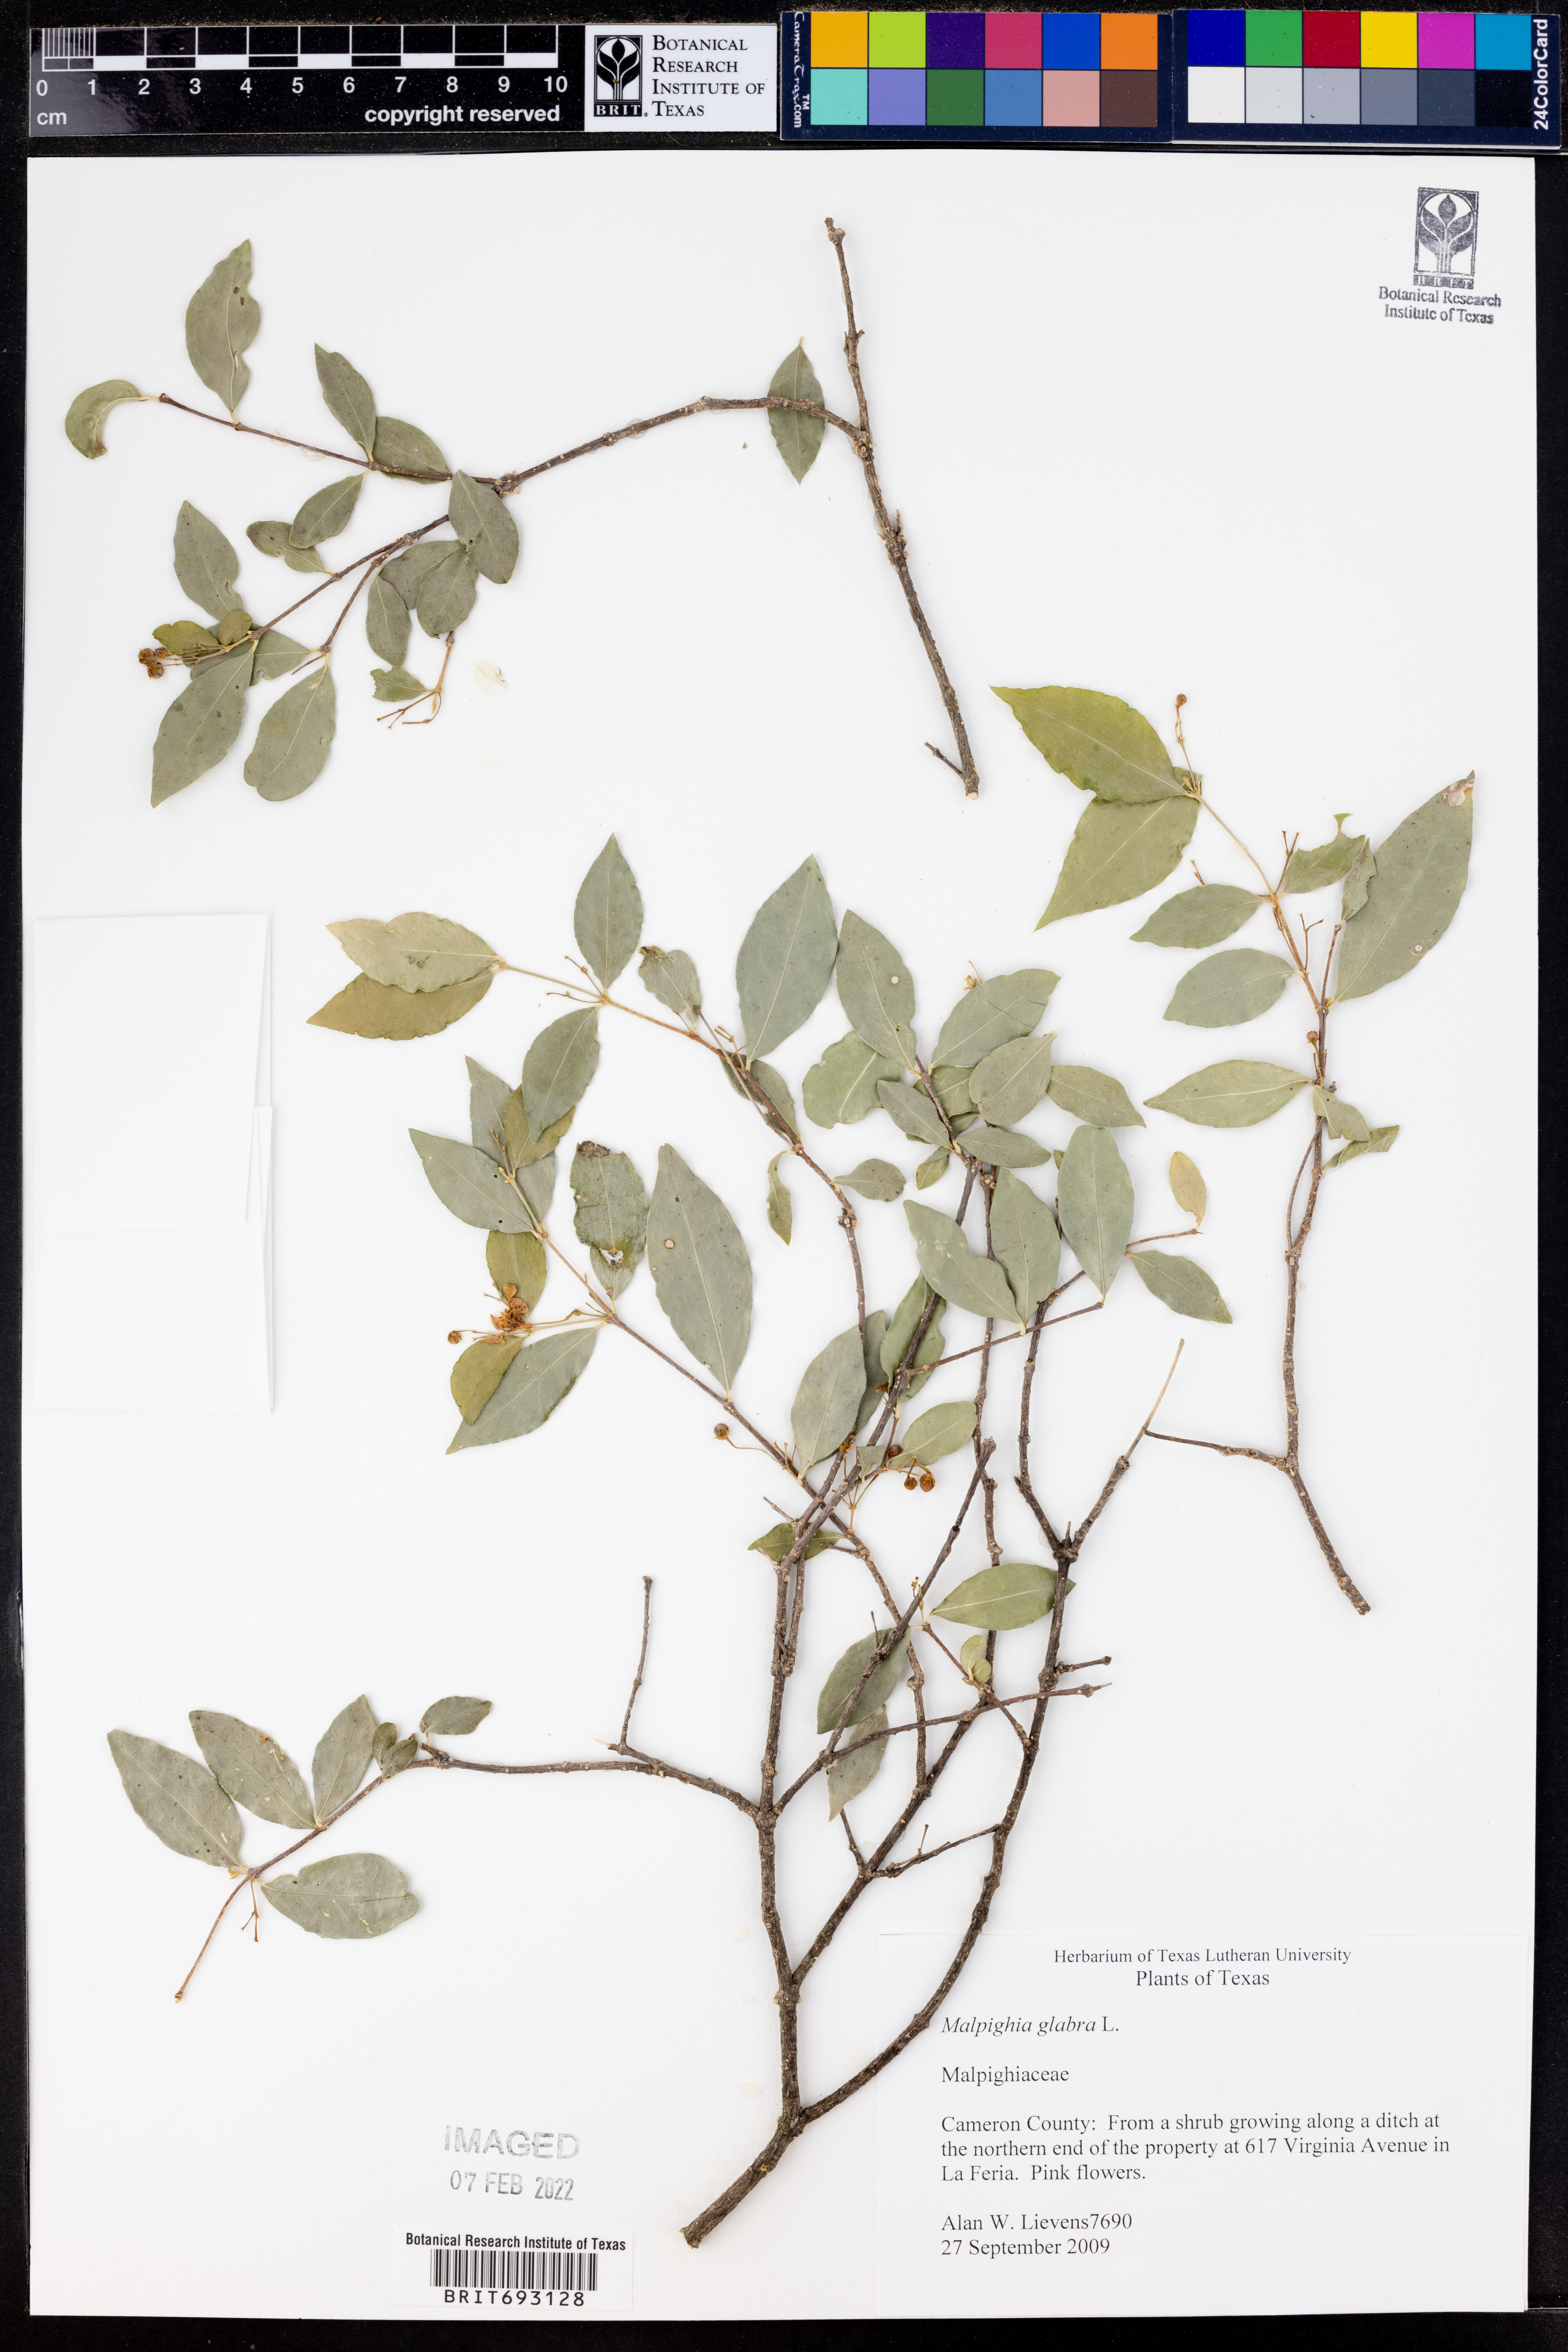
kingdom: Plantae
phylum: Tracheophyta
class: Magnoliopsida
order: Malpighiales
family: Malpighiaceae
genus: Malpighia
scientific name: Malpighia glabra
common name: Barbados cherry
